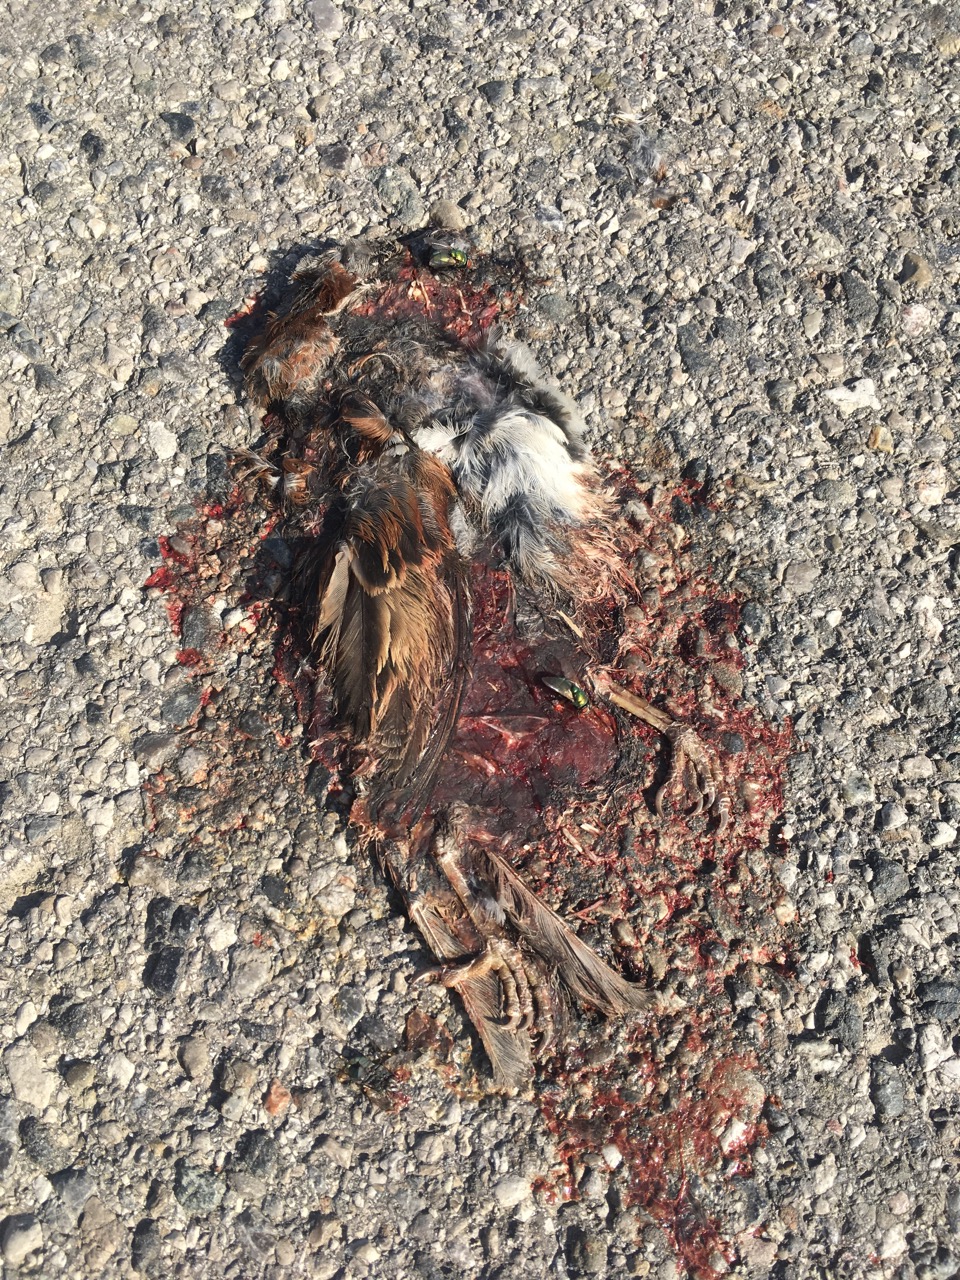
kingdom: Animalia
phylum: Chordata
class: Aves
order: Passeriformes
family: Passeridae
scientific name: Passeridae
